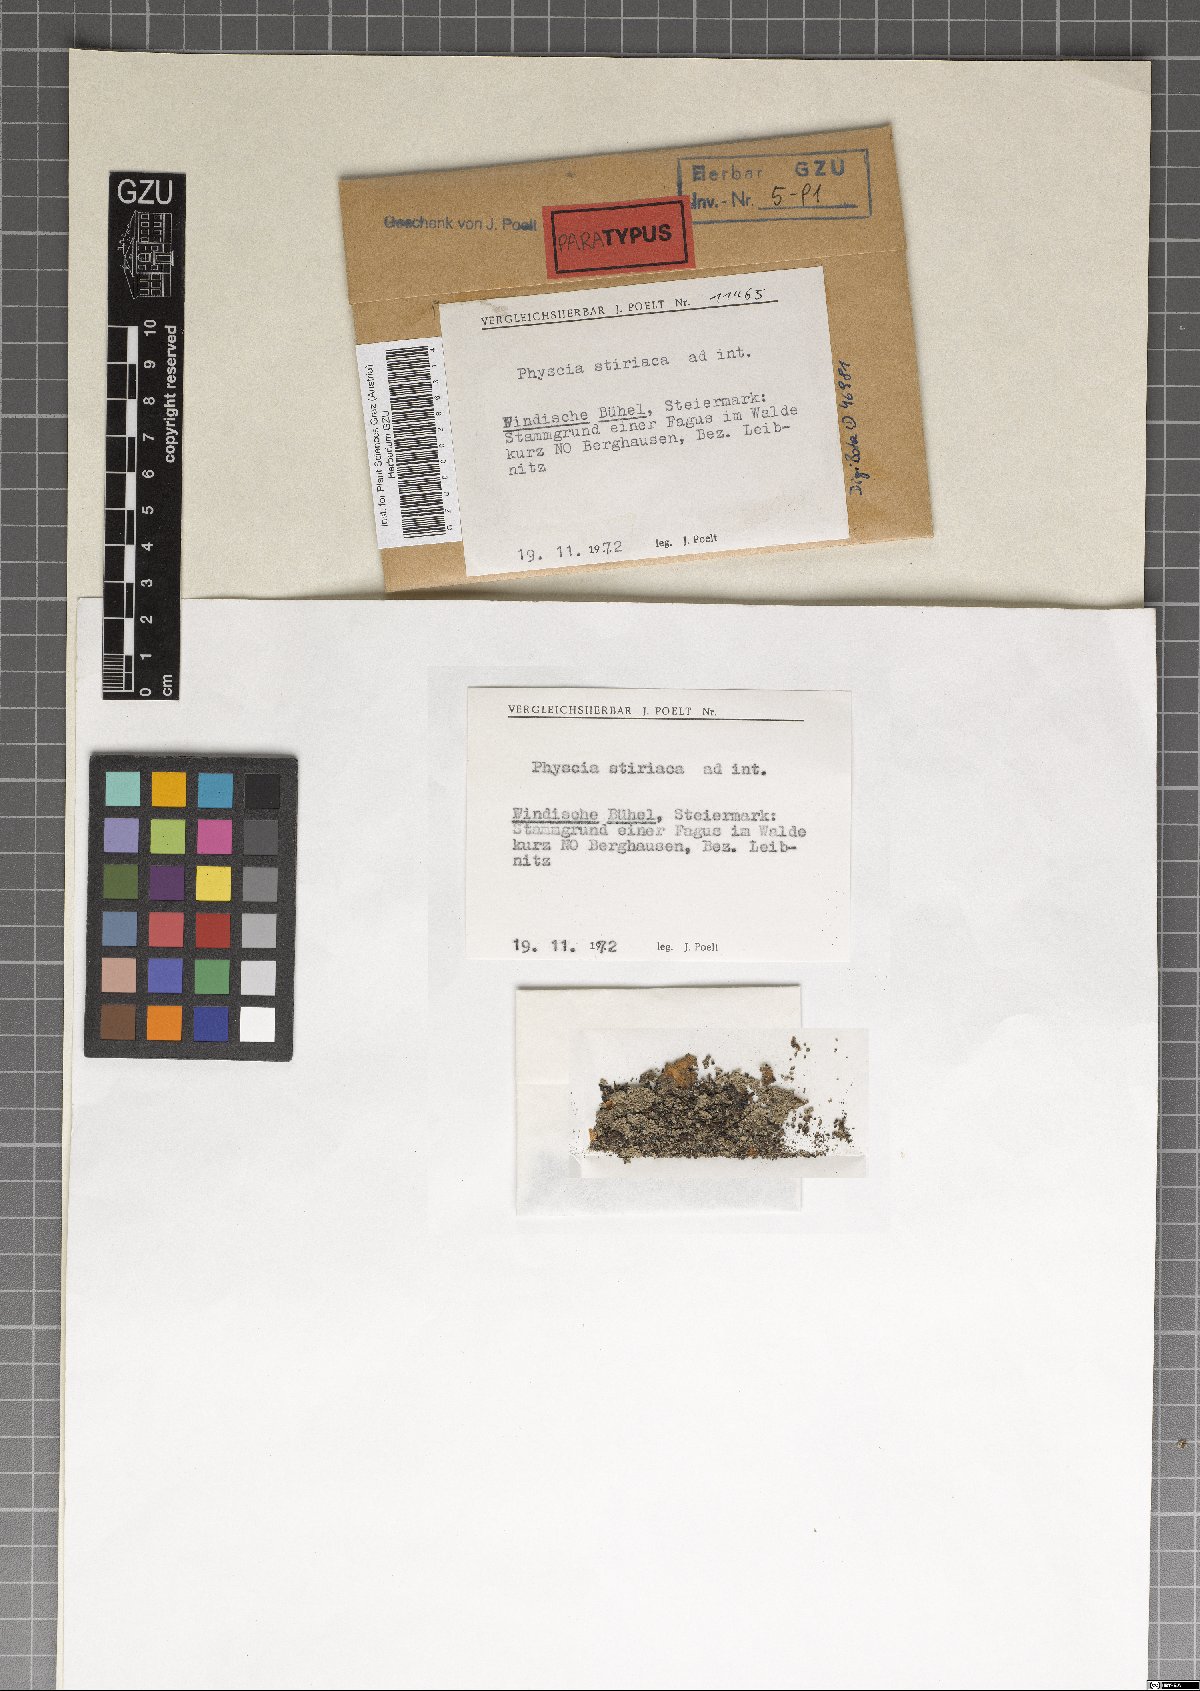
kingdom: Fungi
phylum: Ascomycota
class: Lecanoromycetes
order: Caliciales
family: Physciaceae
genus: Phaeophyscia
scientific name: Phaeophyscia stiriaca
